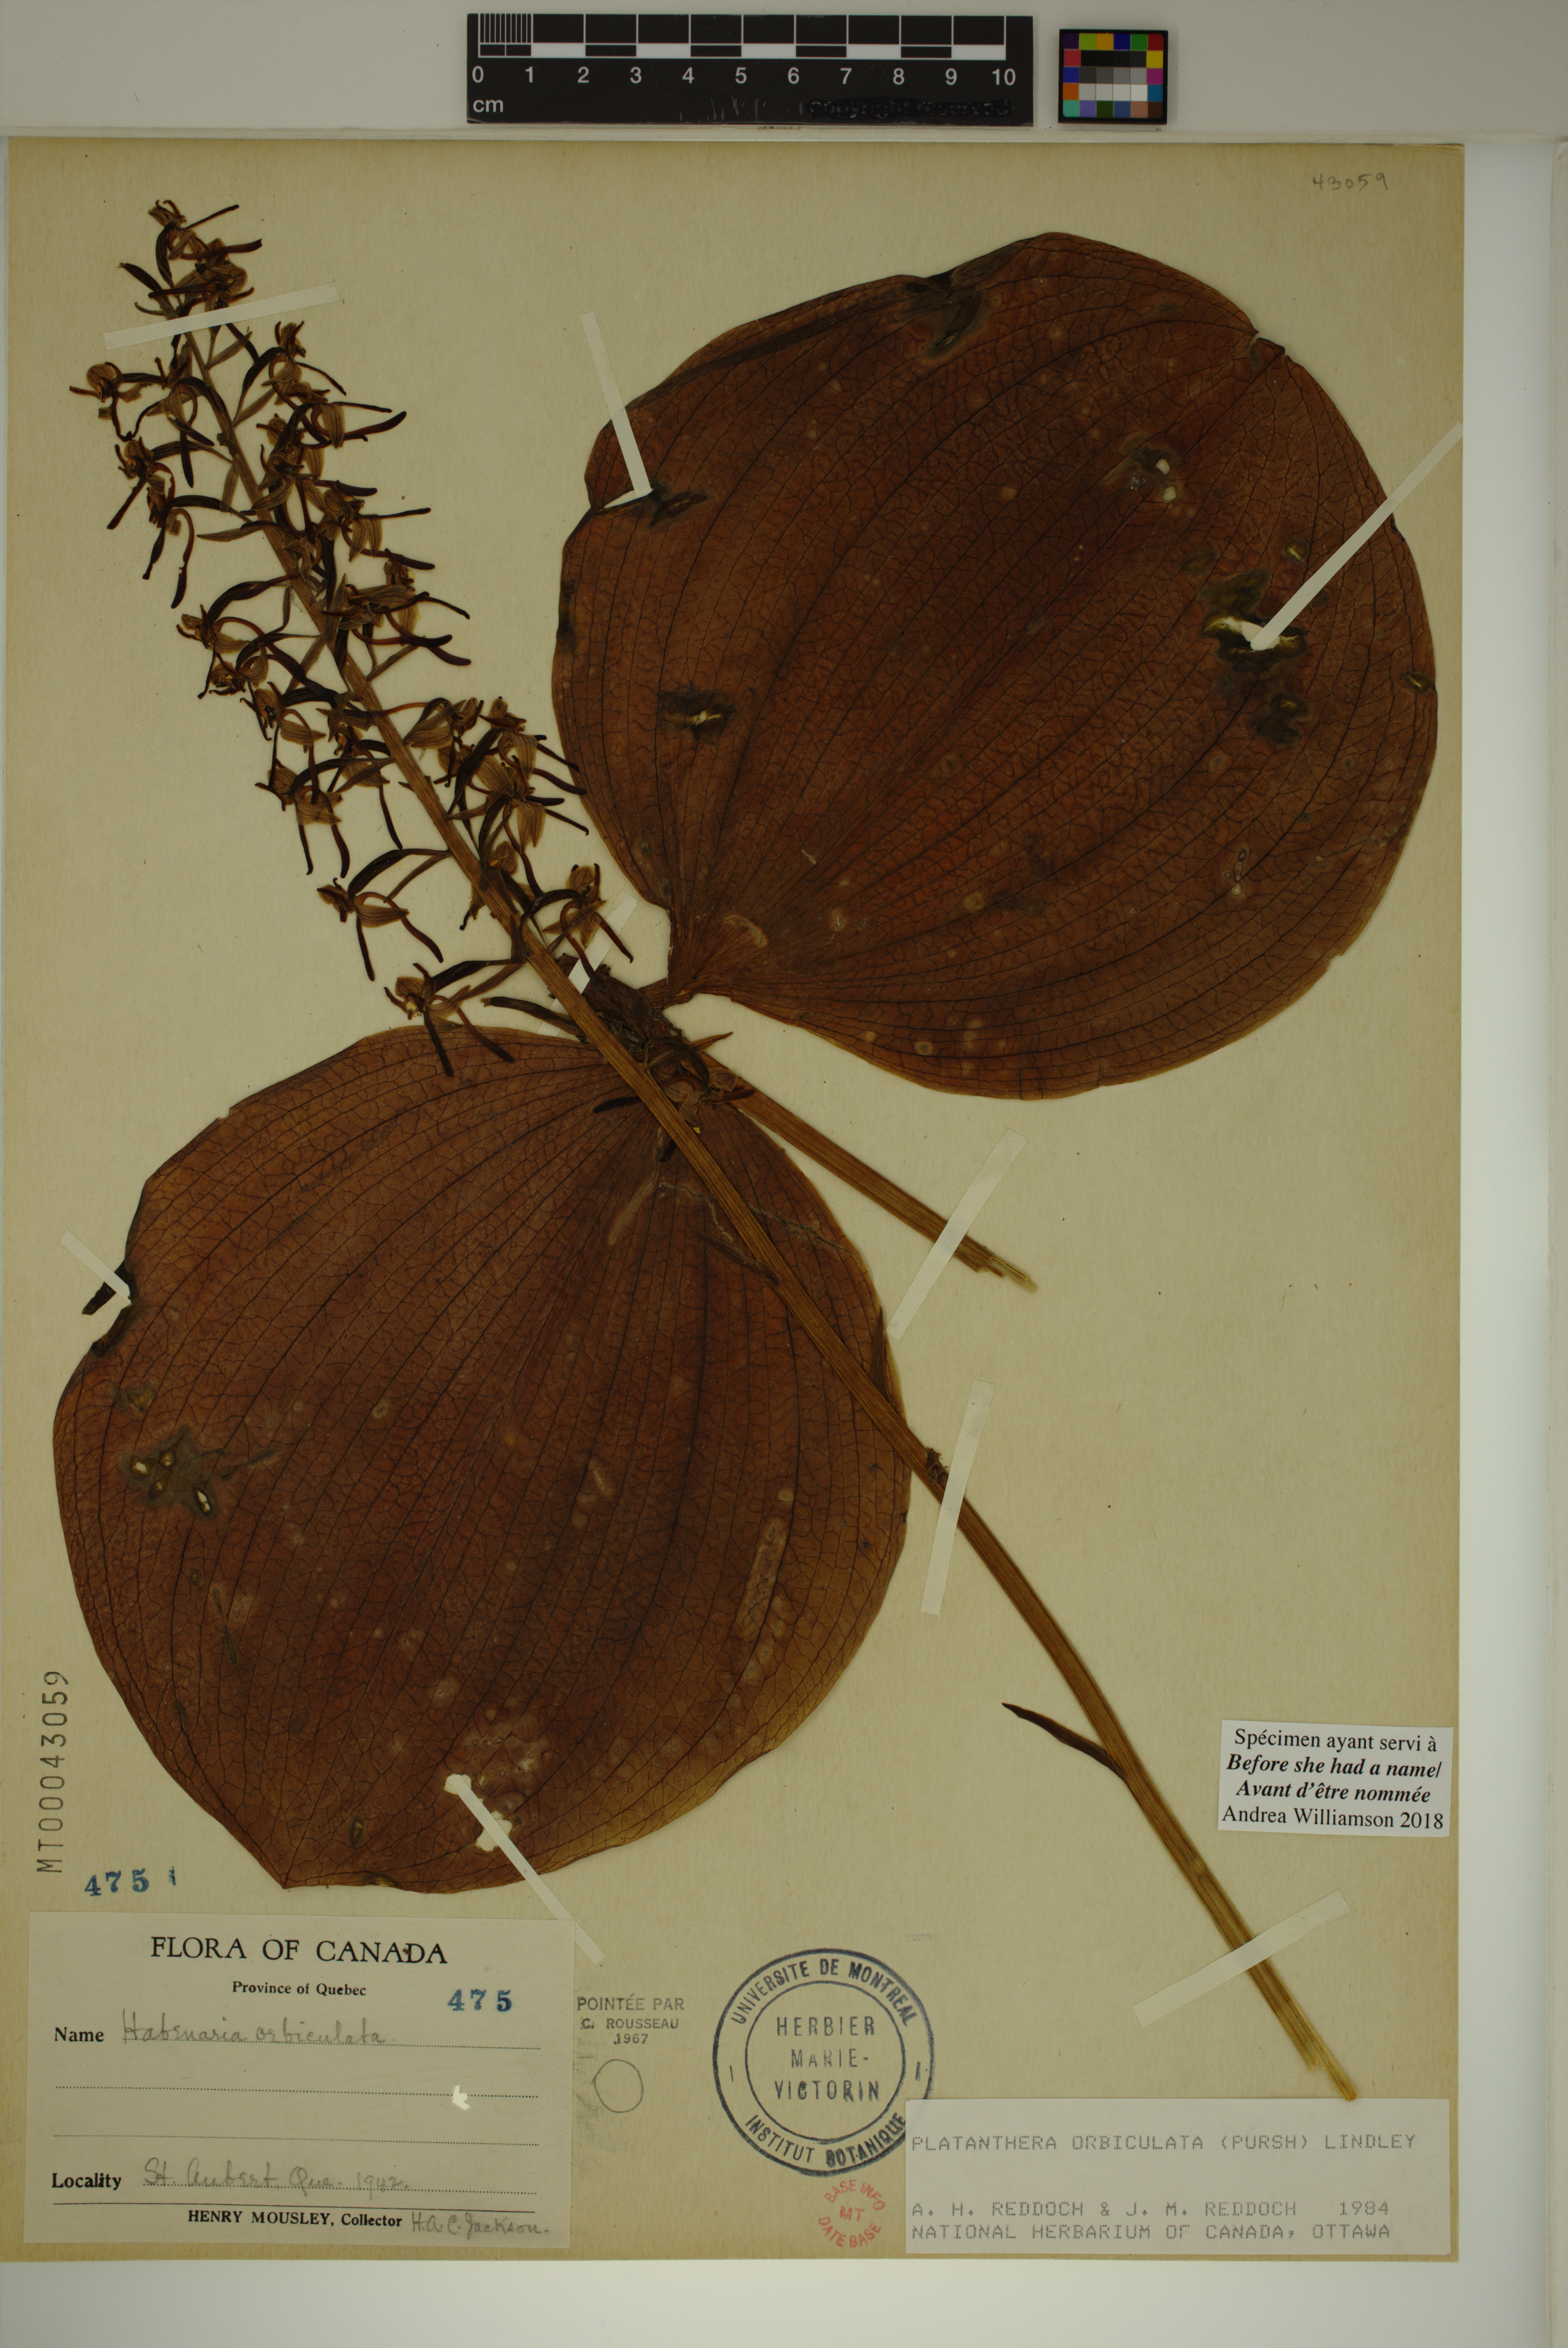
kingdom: Plantae
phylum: Tracheophyta
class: Liliopsida
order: Asparagales
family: Orchidaceae
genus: Platanthera
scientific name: Platanthera orbiculata
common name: Large round-leaved orchid
